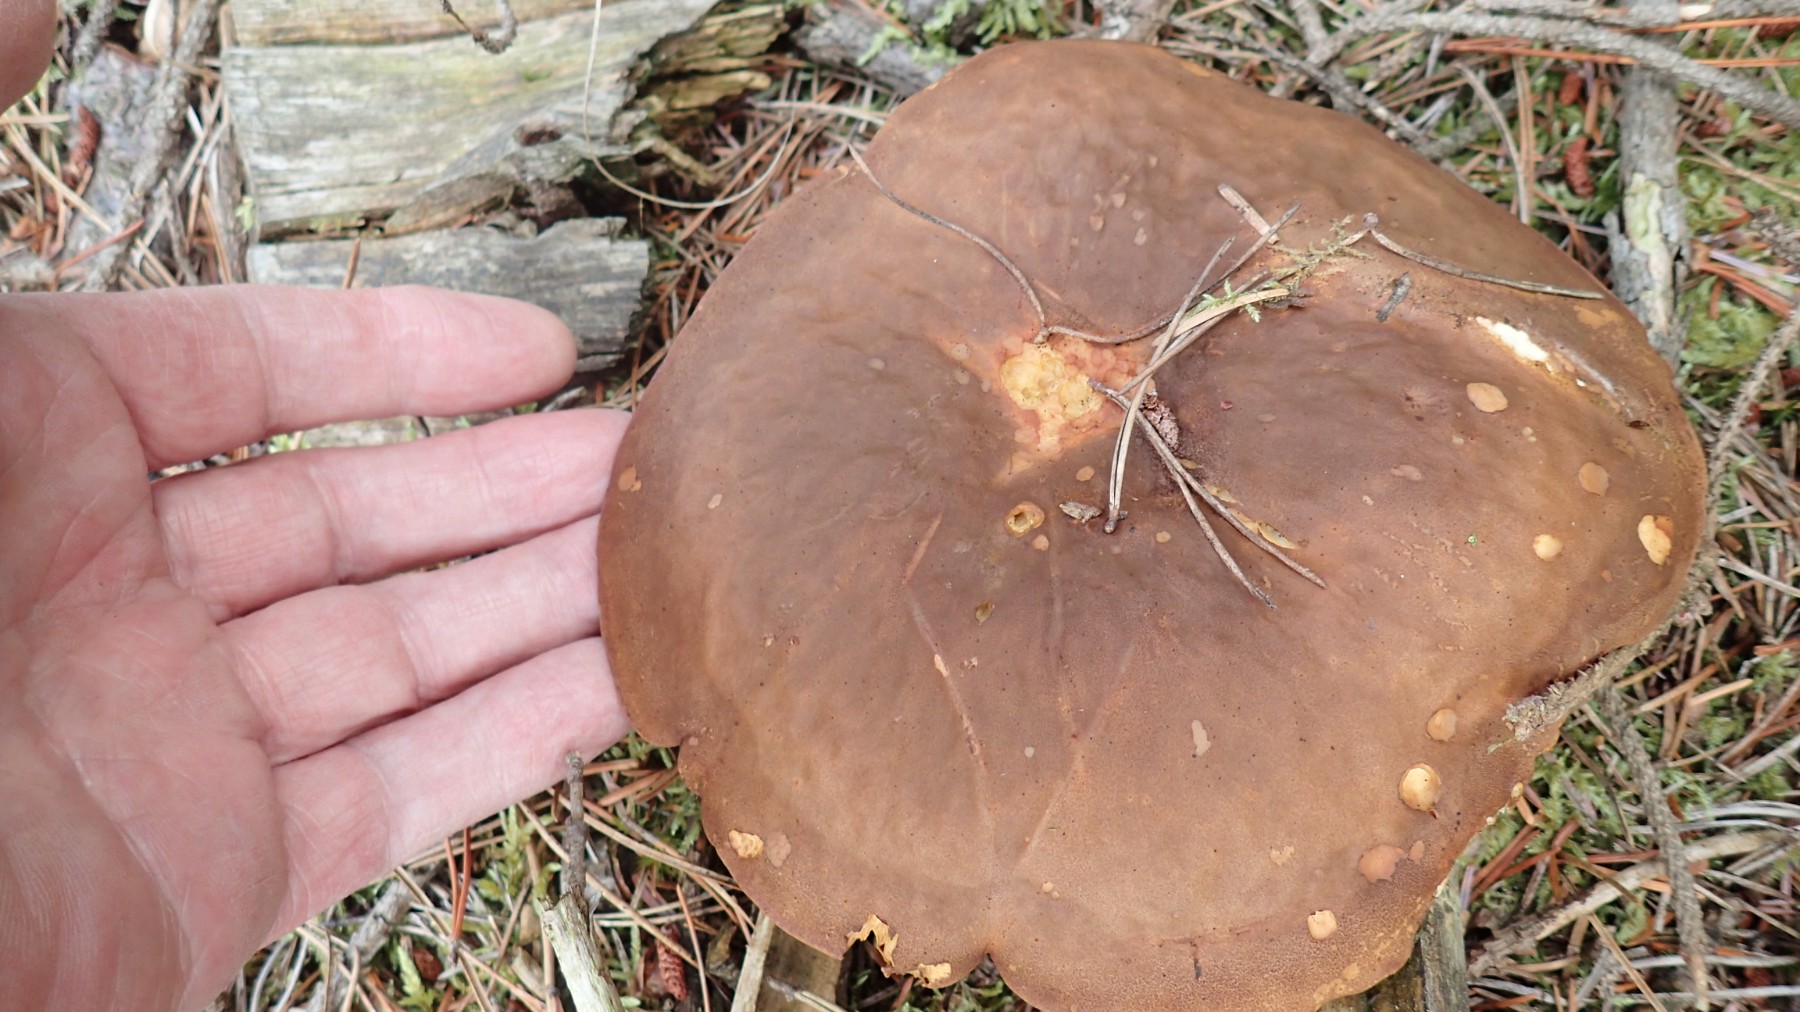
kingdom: Fungi
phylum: Basidiomycota
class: Agaricomycetes
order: Boletales
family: Tapinellaceae
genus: Tapinella
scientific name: Tapinella atrotomentosa
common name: sortfiltet viftesvamp
